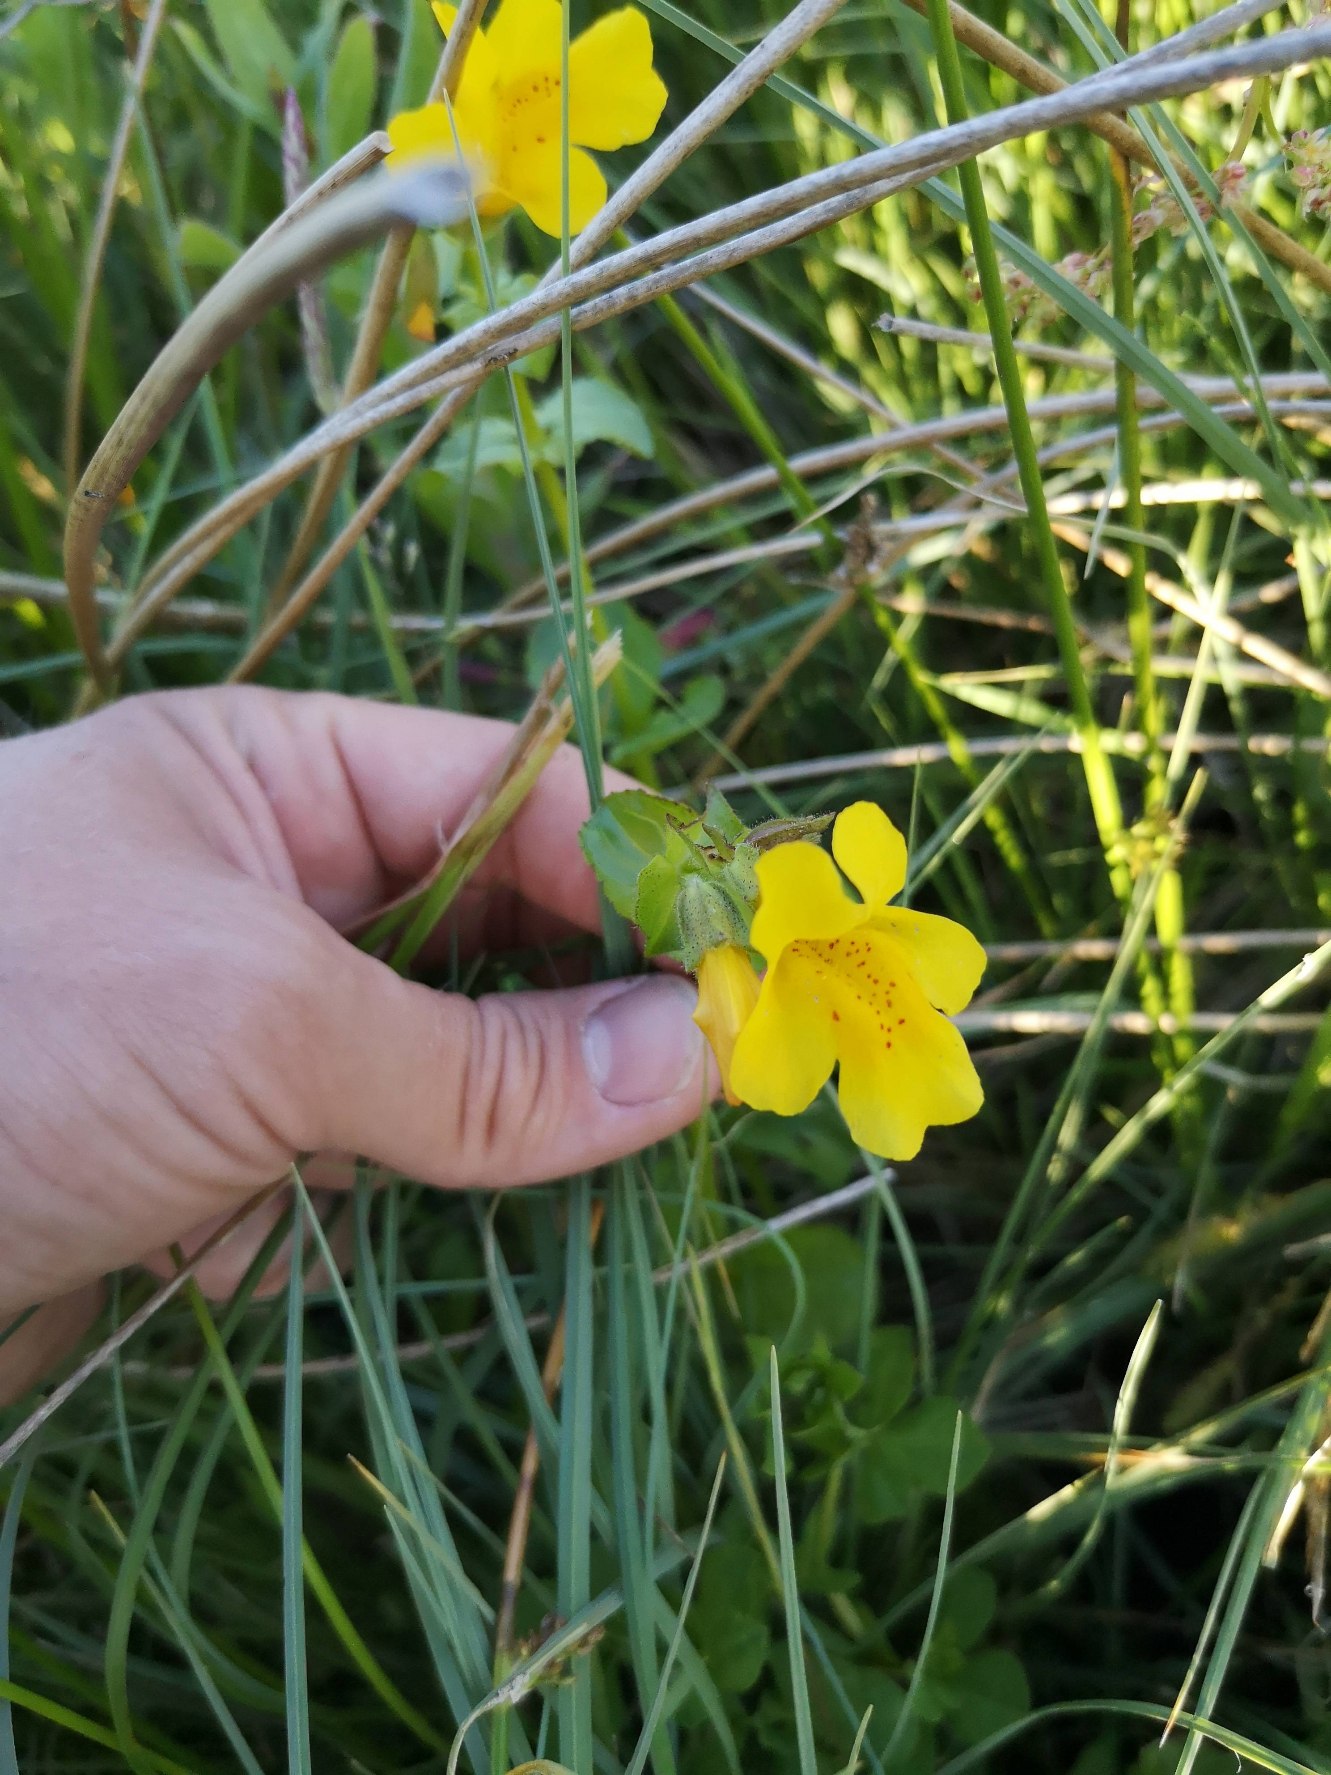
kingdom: Plantae
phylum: Tracheophyta
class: Magnoliopsida
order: Lamiales
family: Phrymaceae
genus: Erythranthe
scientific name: Erythranthe guttata
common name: Abeblomst
